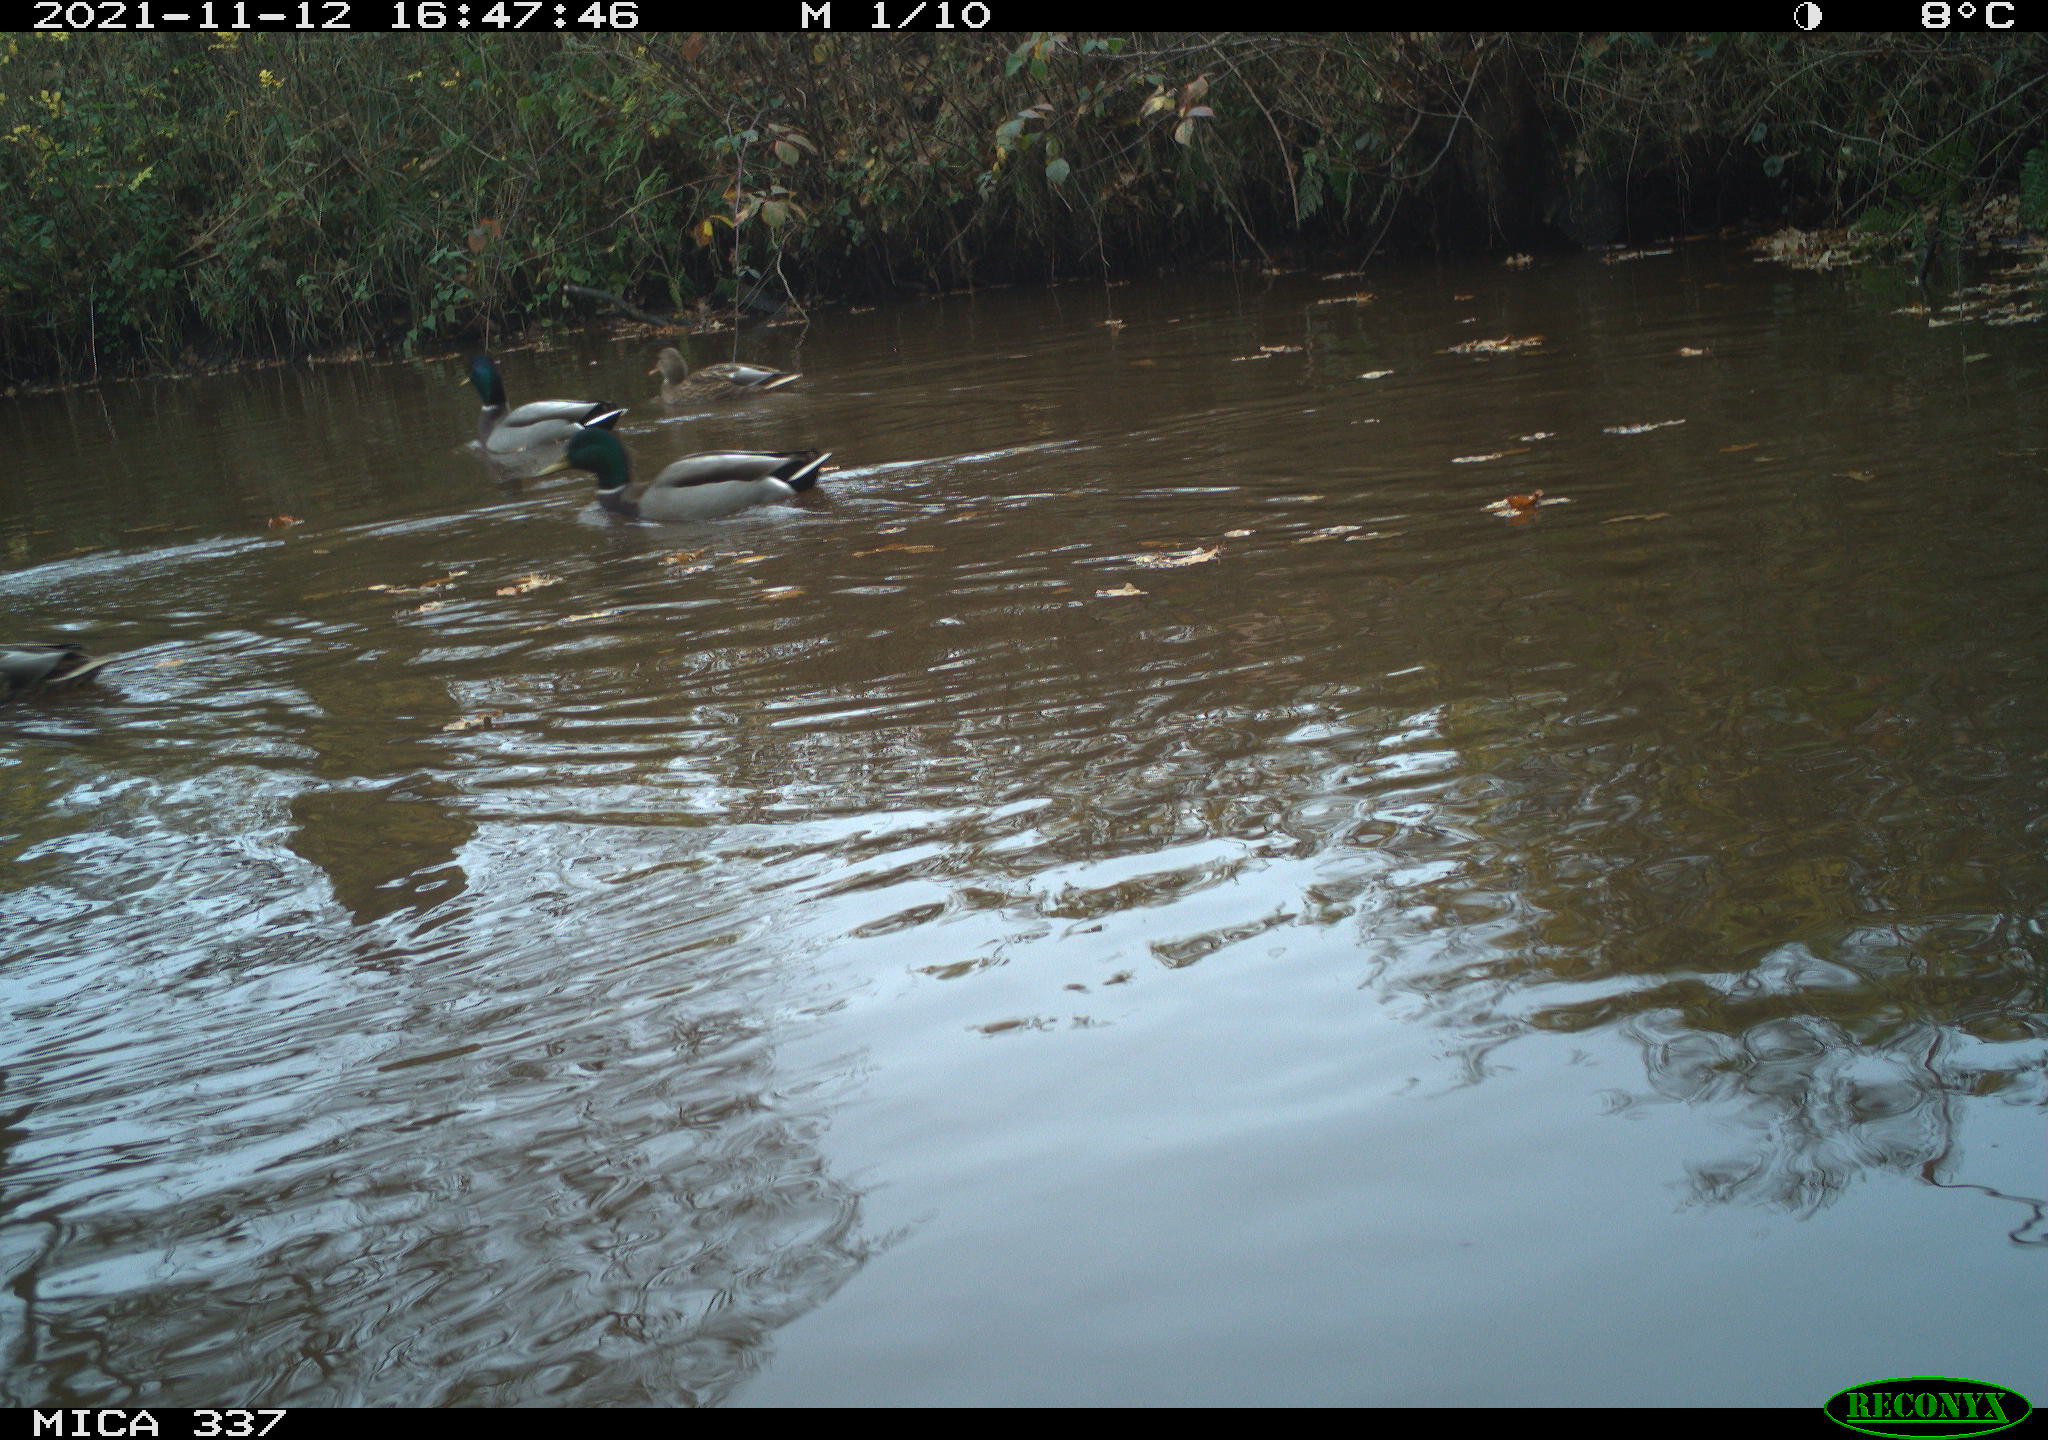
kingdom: Animalia
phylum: Chordata
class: Aves
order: Anseriformes
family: Anatidae
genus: Anas
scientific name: Anas platyrhynchos
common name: Mallard
